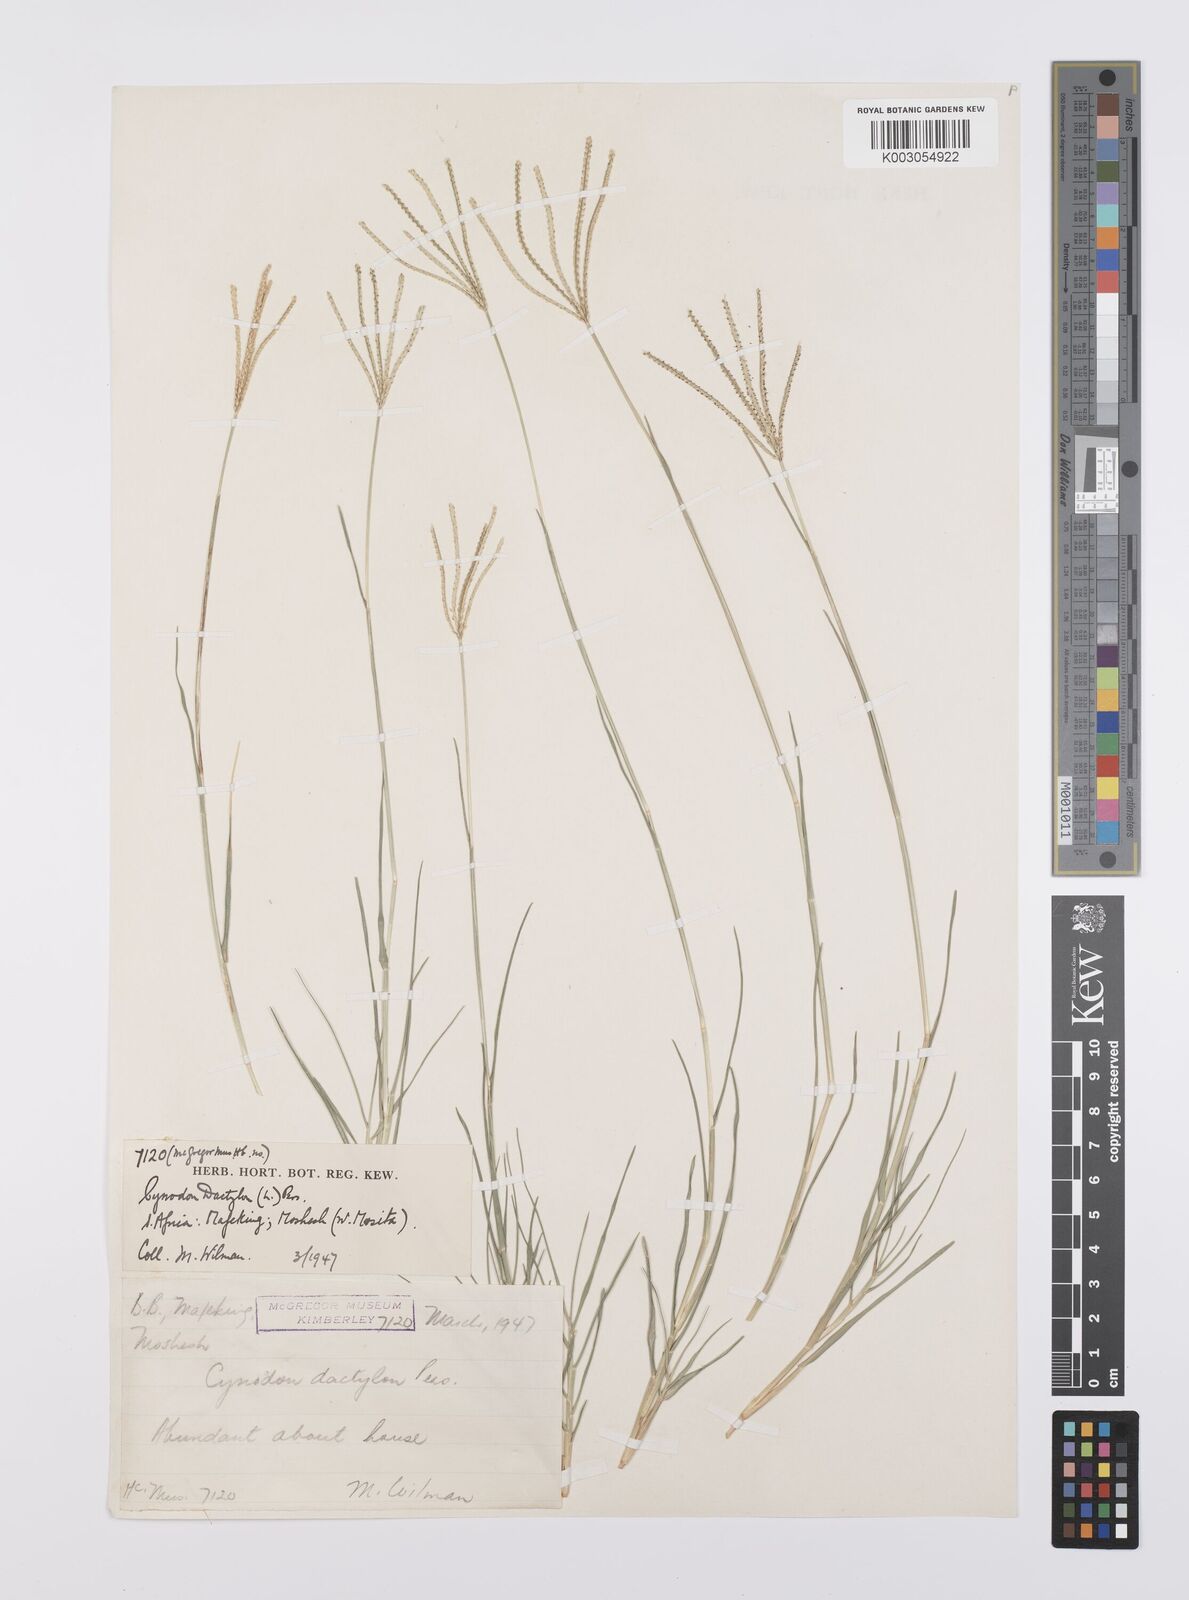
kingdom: Plantae
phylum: Tracheophyta
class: Liliopsida
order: Poales
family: Poaceae
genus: Cynodon
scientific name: Cynodon dactylon
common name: Bermuda grass
